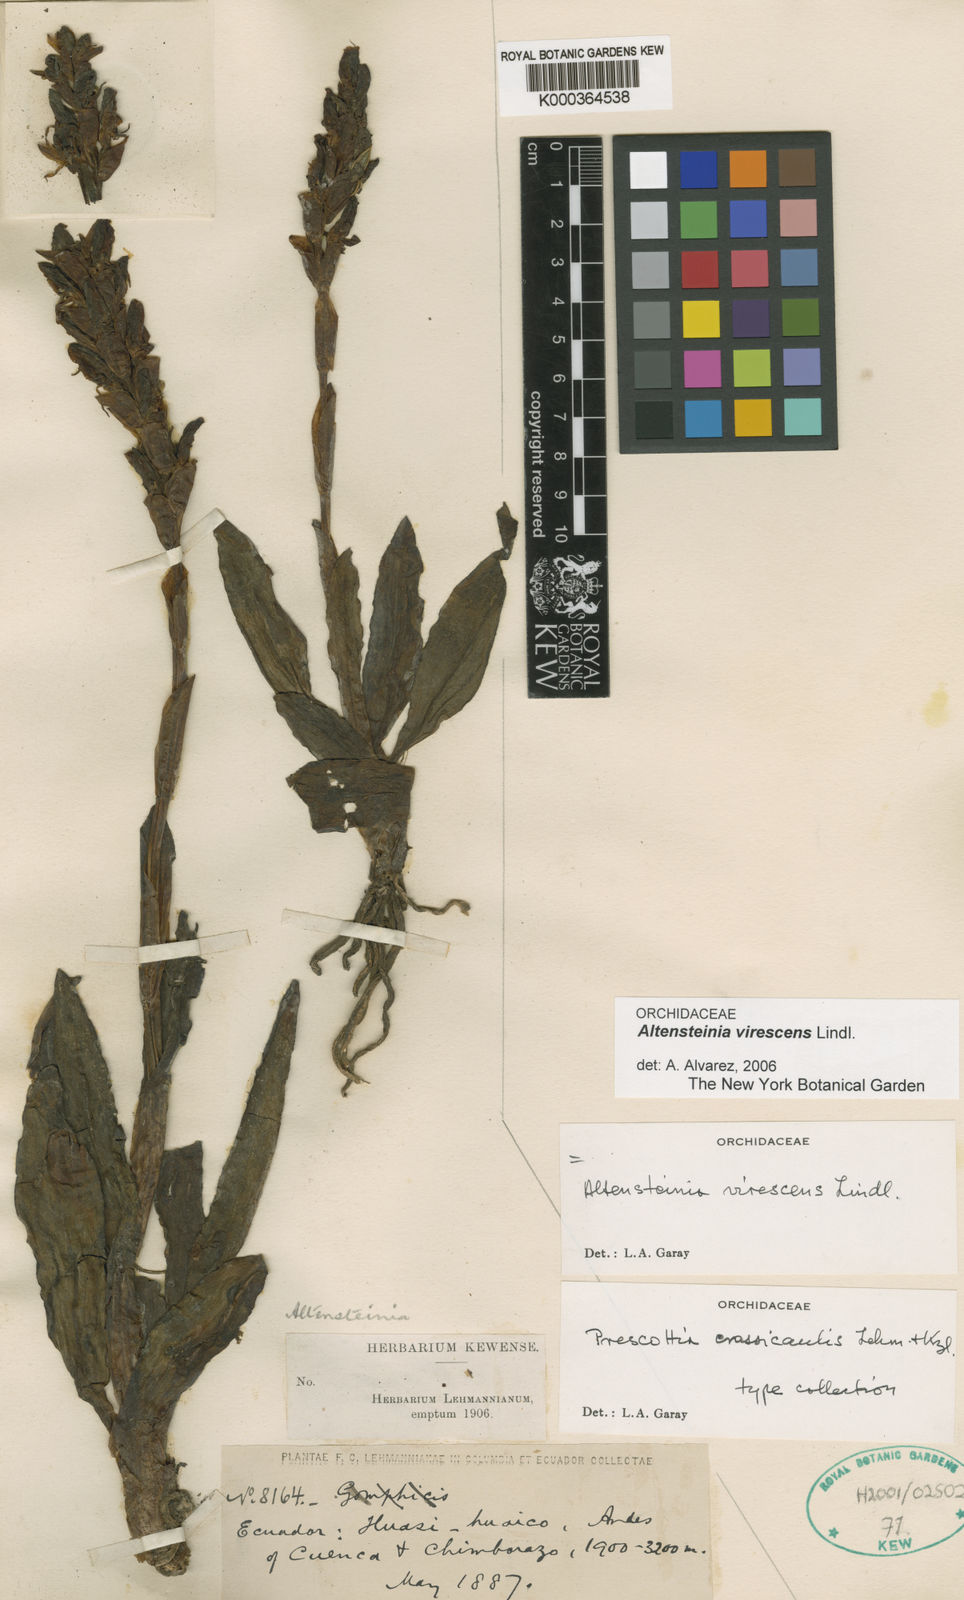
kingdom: Plantae
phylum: Tracheophyta
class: Liliopsida
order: Asparagales
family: Orchidaceae
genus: Altensteinia
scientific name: Altensteinia virescens
